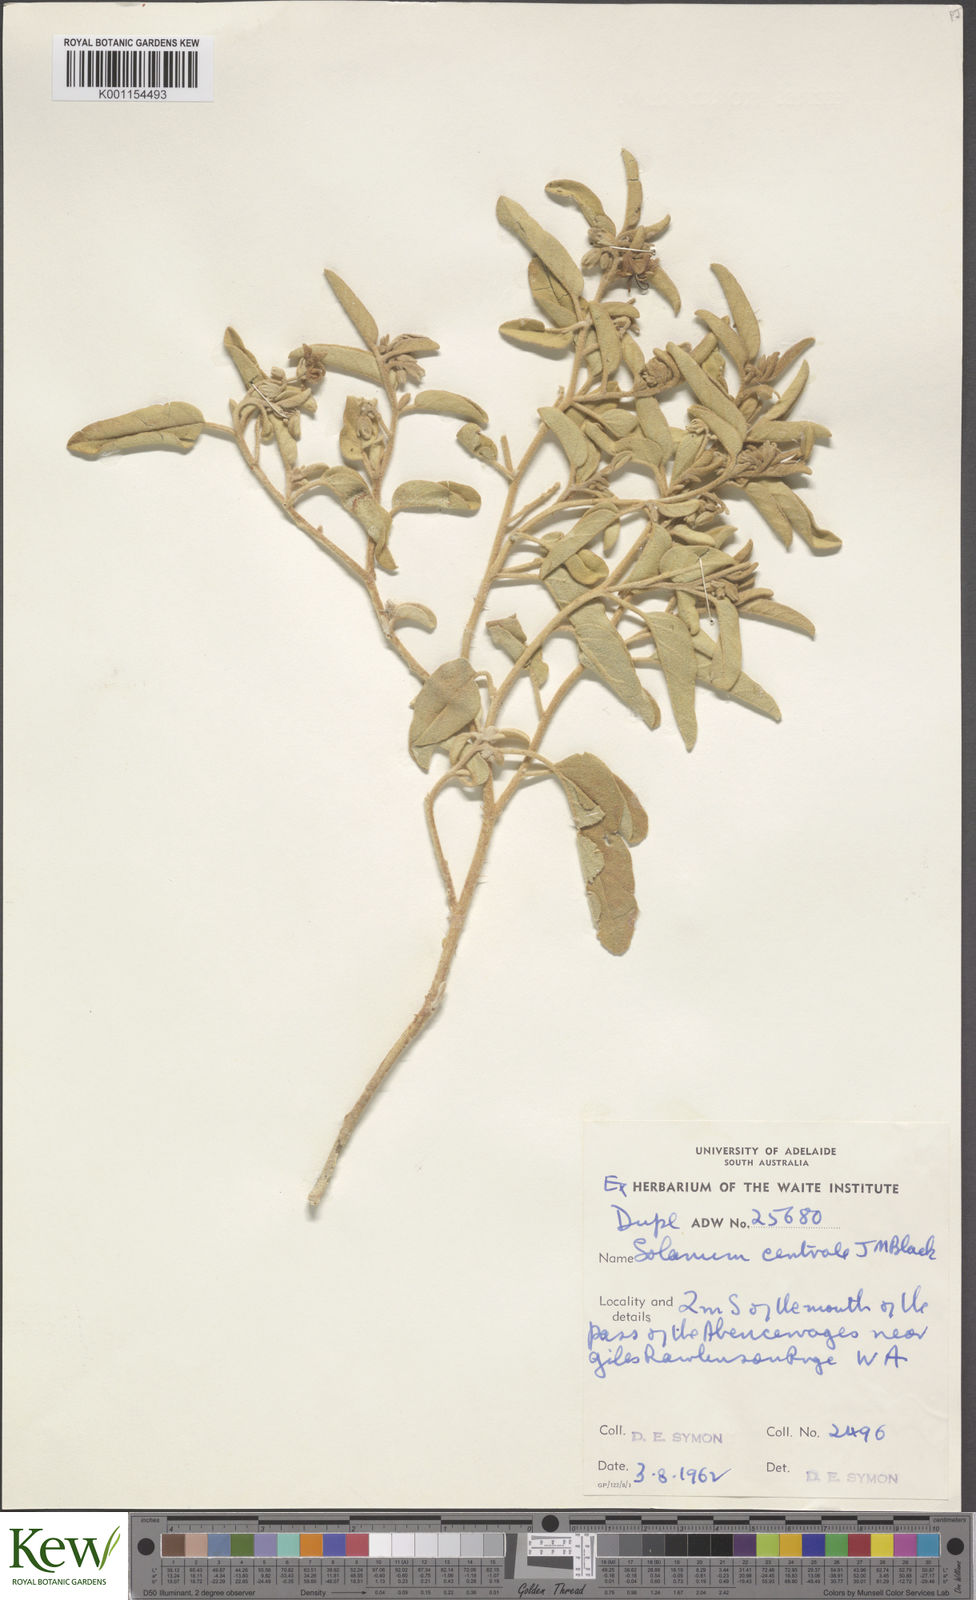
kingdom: Plantae
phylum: Tracheophyta
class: Magnoliopsida
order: Solanales
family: Solanaceae
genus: Solanum
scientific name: Solanum centrale
